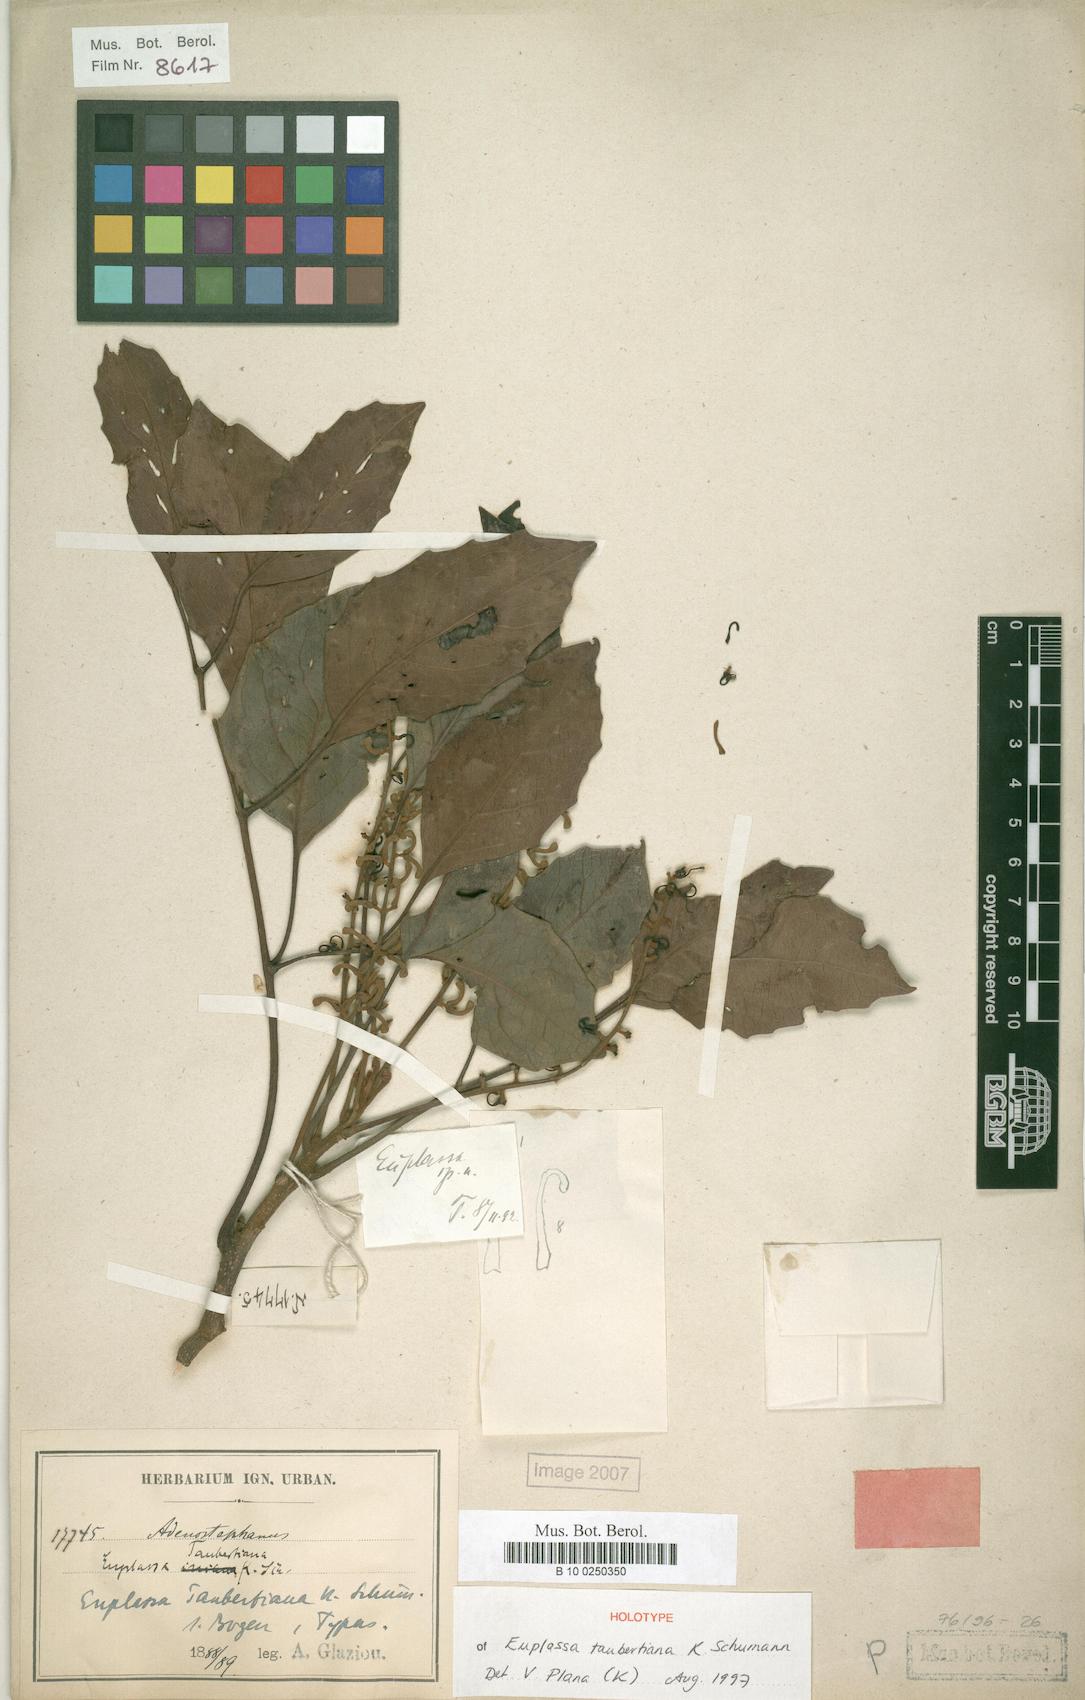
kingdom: Plantae
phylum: Tracheophyta
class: Magnoliopsida
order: Proteales
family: Proteaceae
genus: Euplassa
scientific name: Euplassa taubertiana
